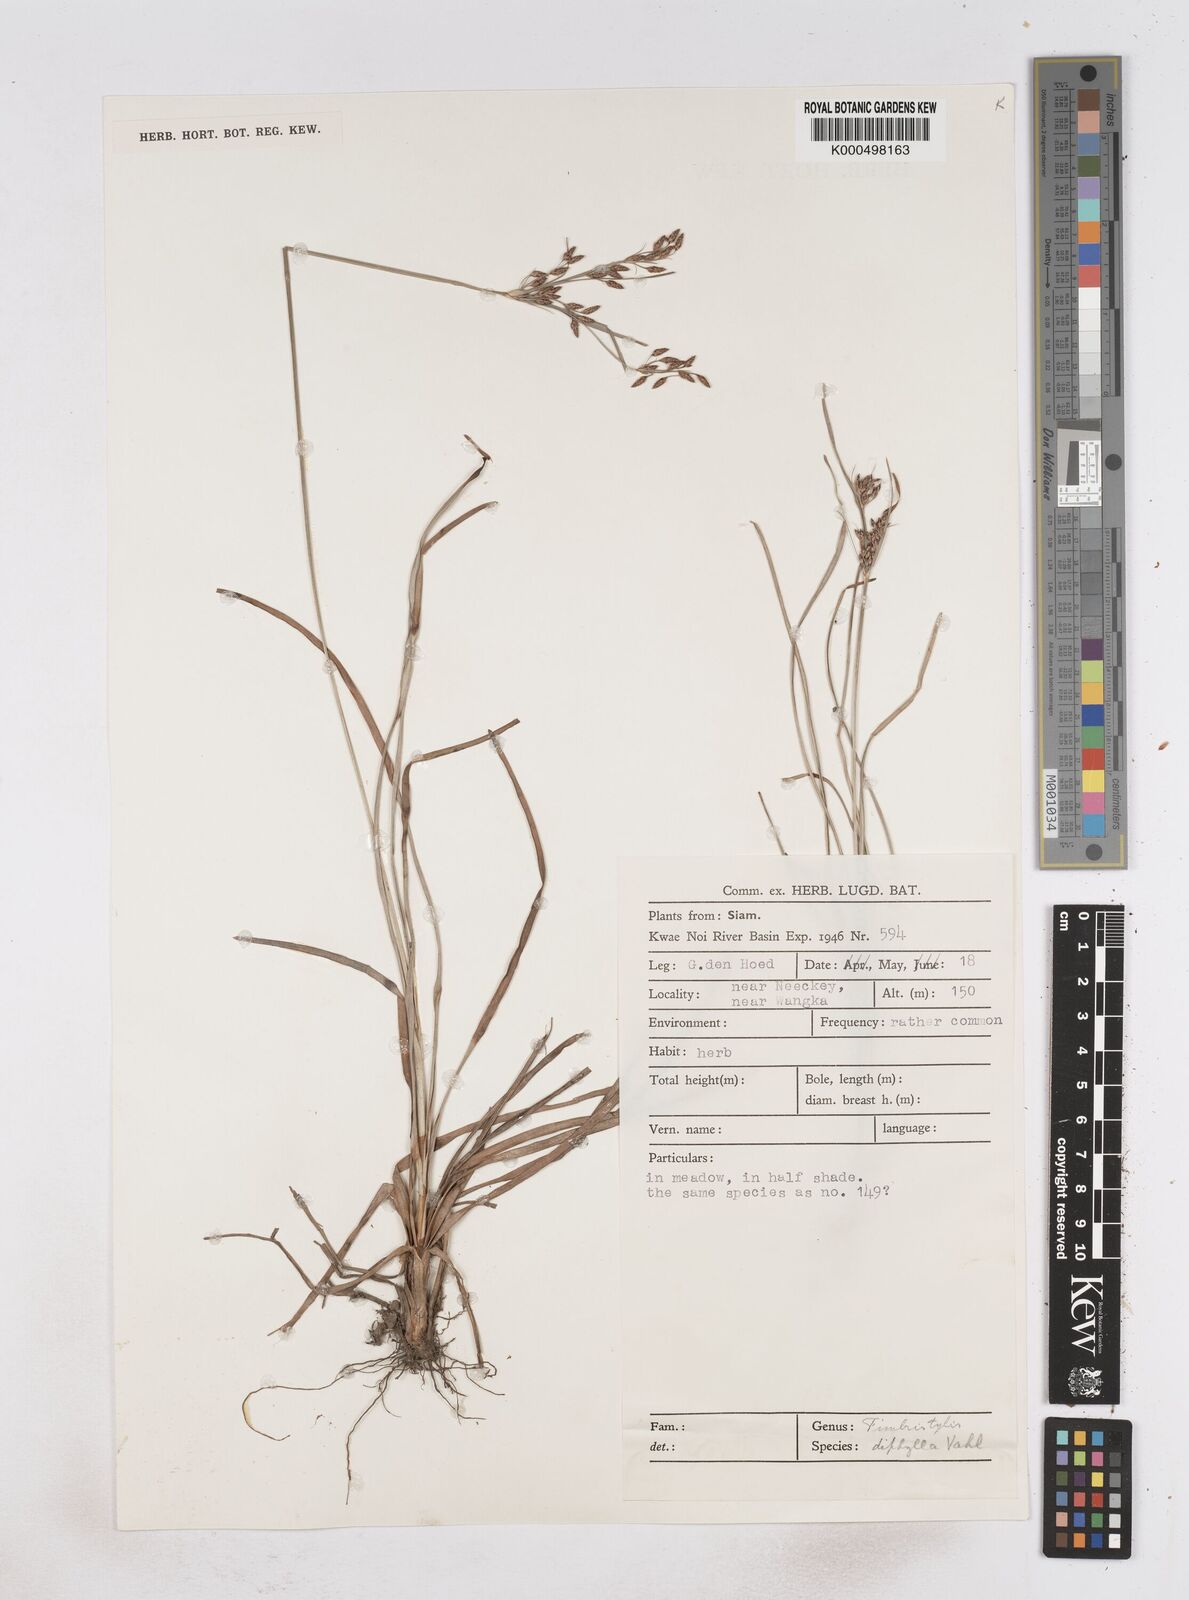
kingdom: Plantae
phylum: Tracheophyta
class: Liliopsida
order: Poales
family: Cyperaceae
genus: Fimbristylis
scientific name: Fimbristylis dichotoma
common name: Forked fimbry
